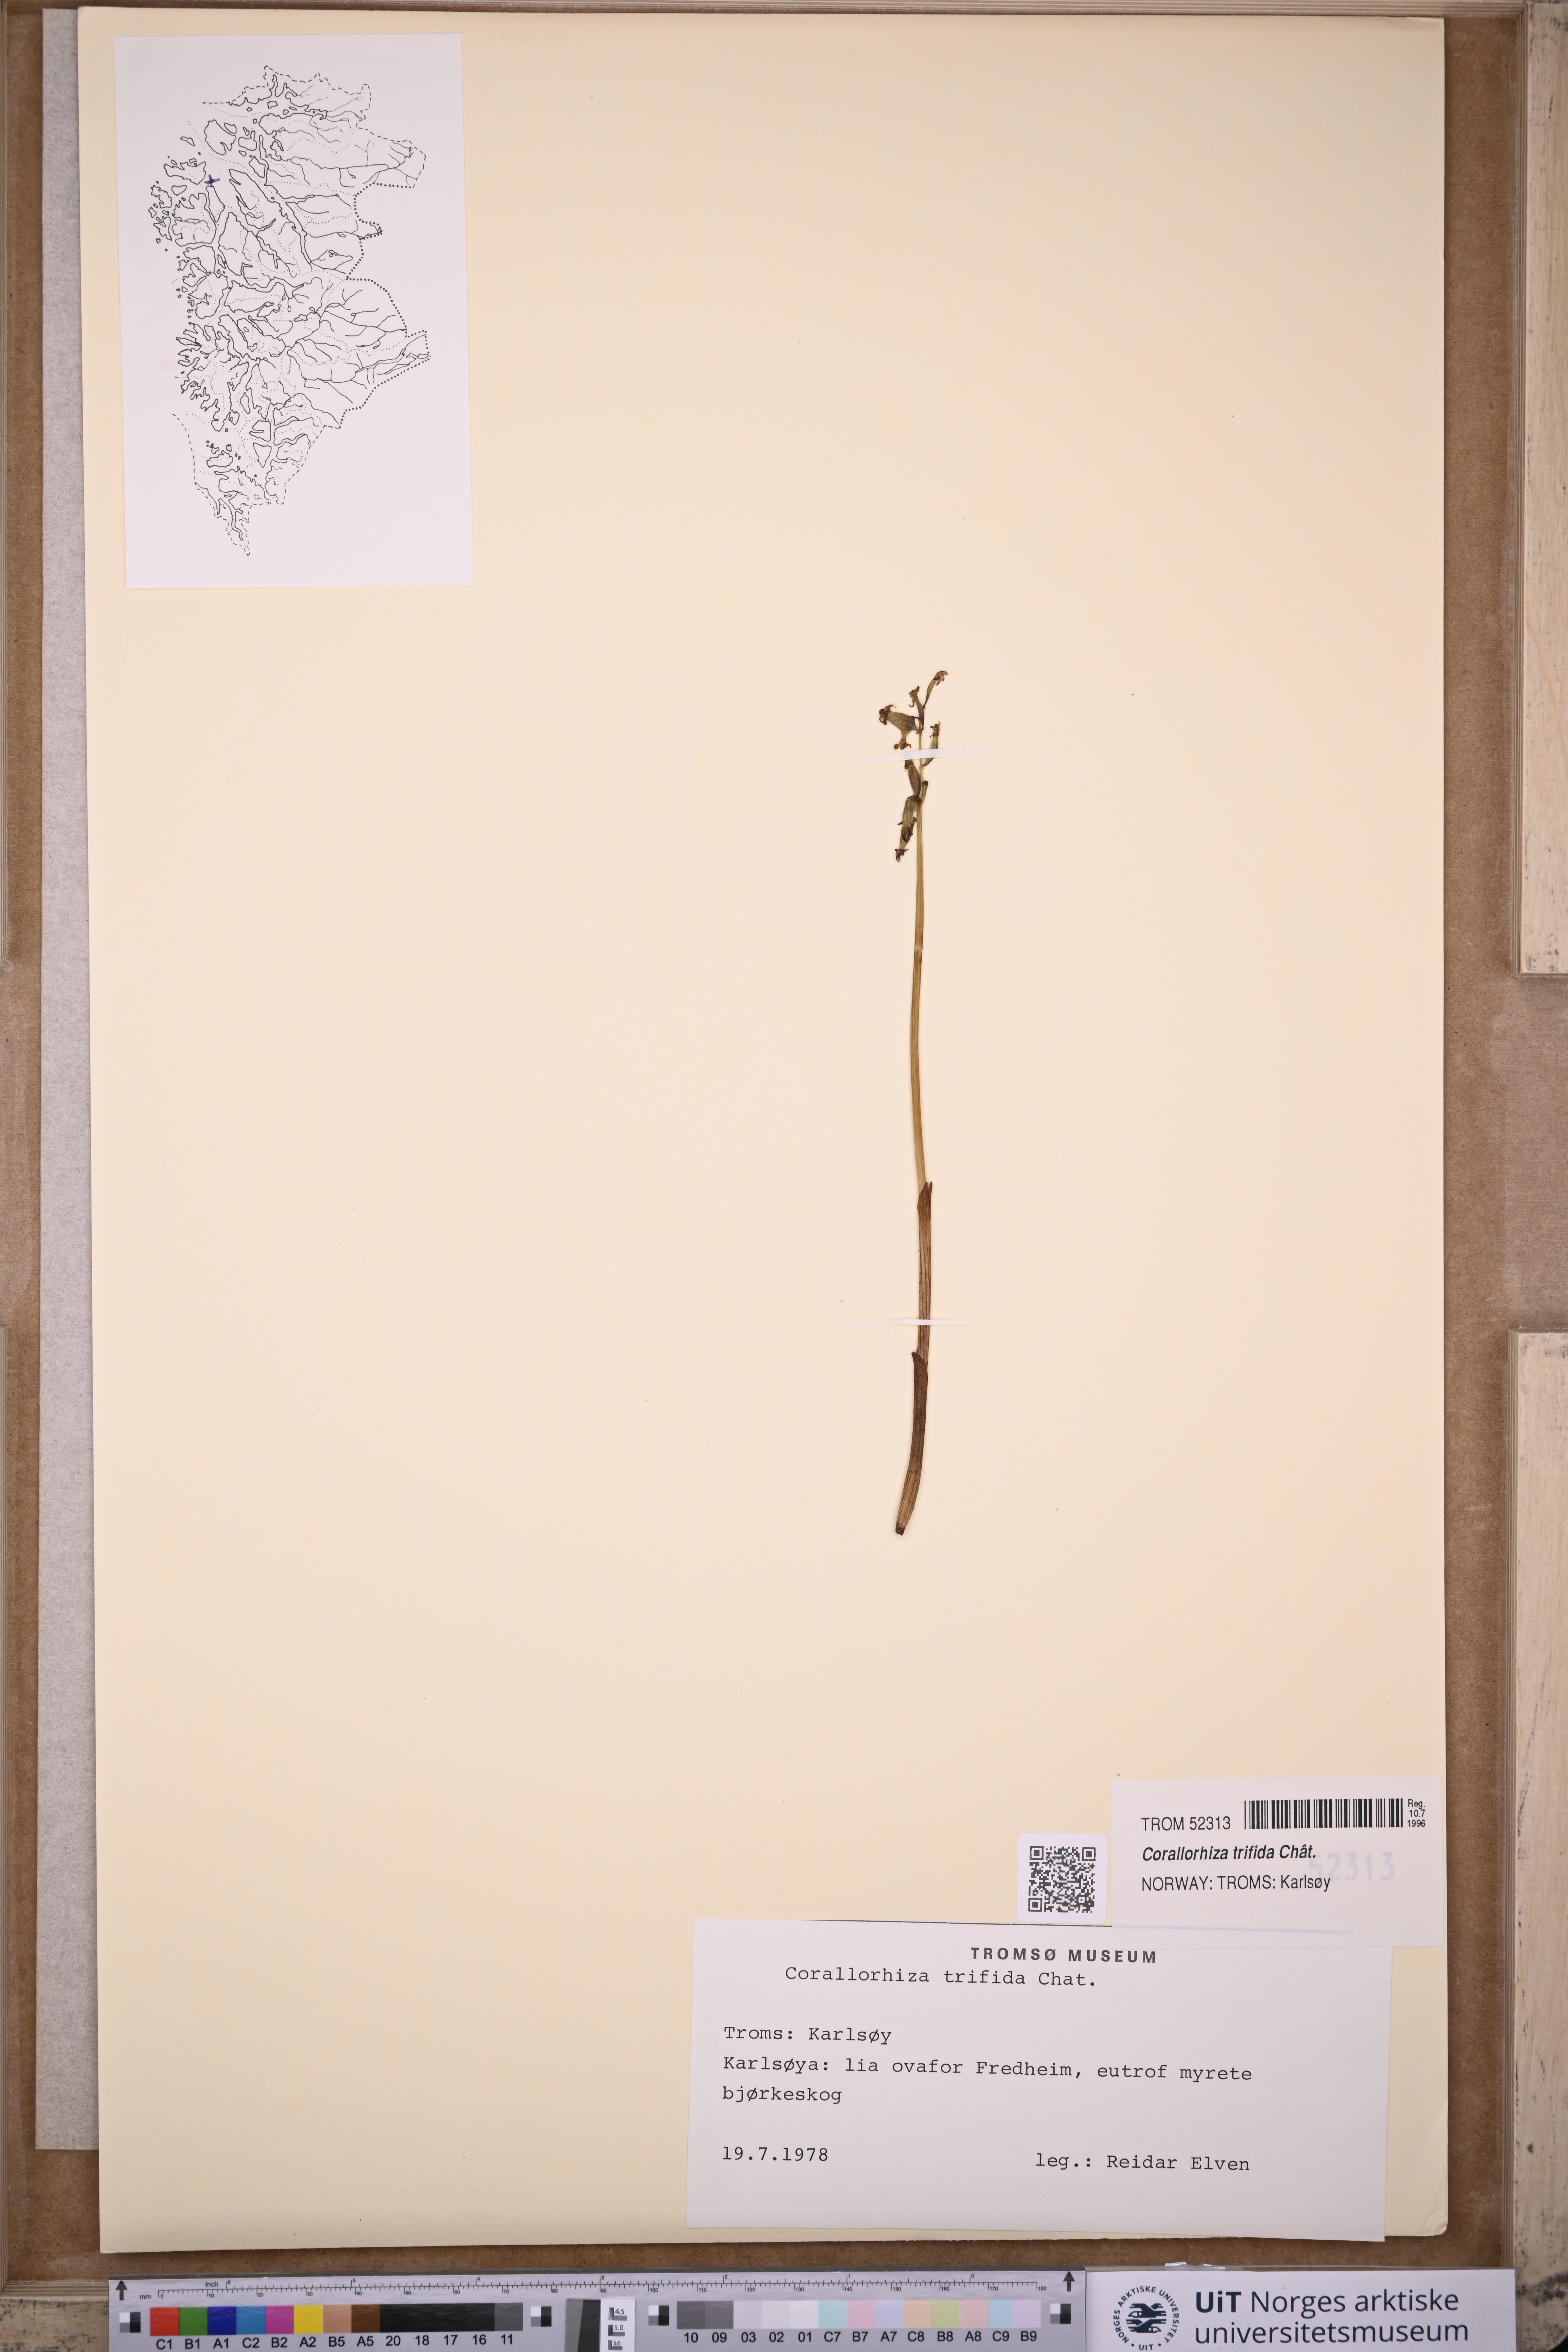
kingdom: Plantae
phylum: Tracheophyta
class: Liliopsida
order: Asparagales
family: Orchidaceae
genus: Corallorhiza
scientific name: Corallorhiza trifida
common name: Yellow coralroot
